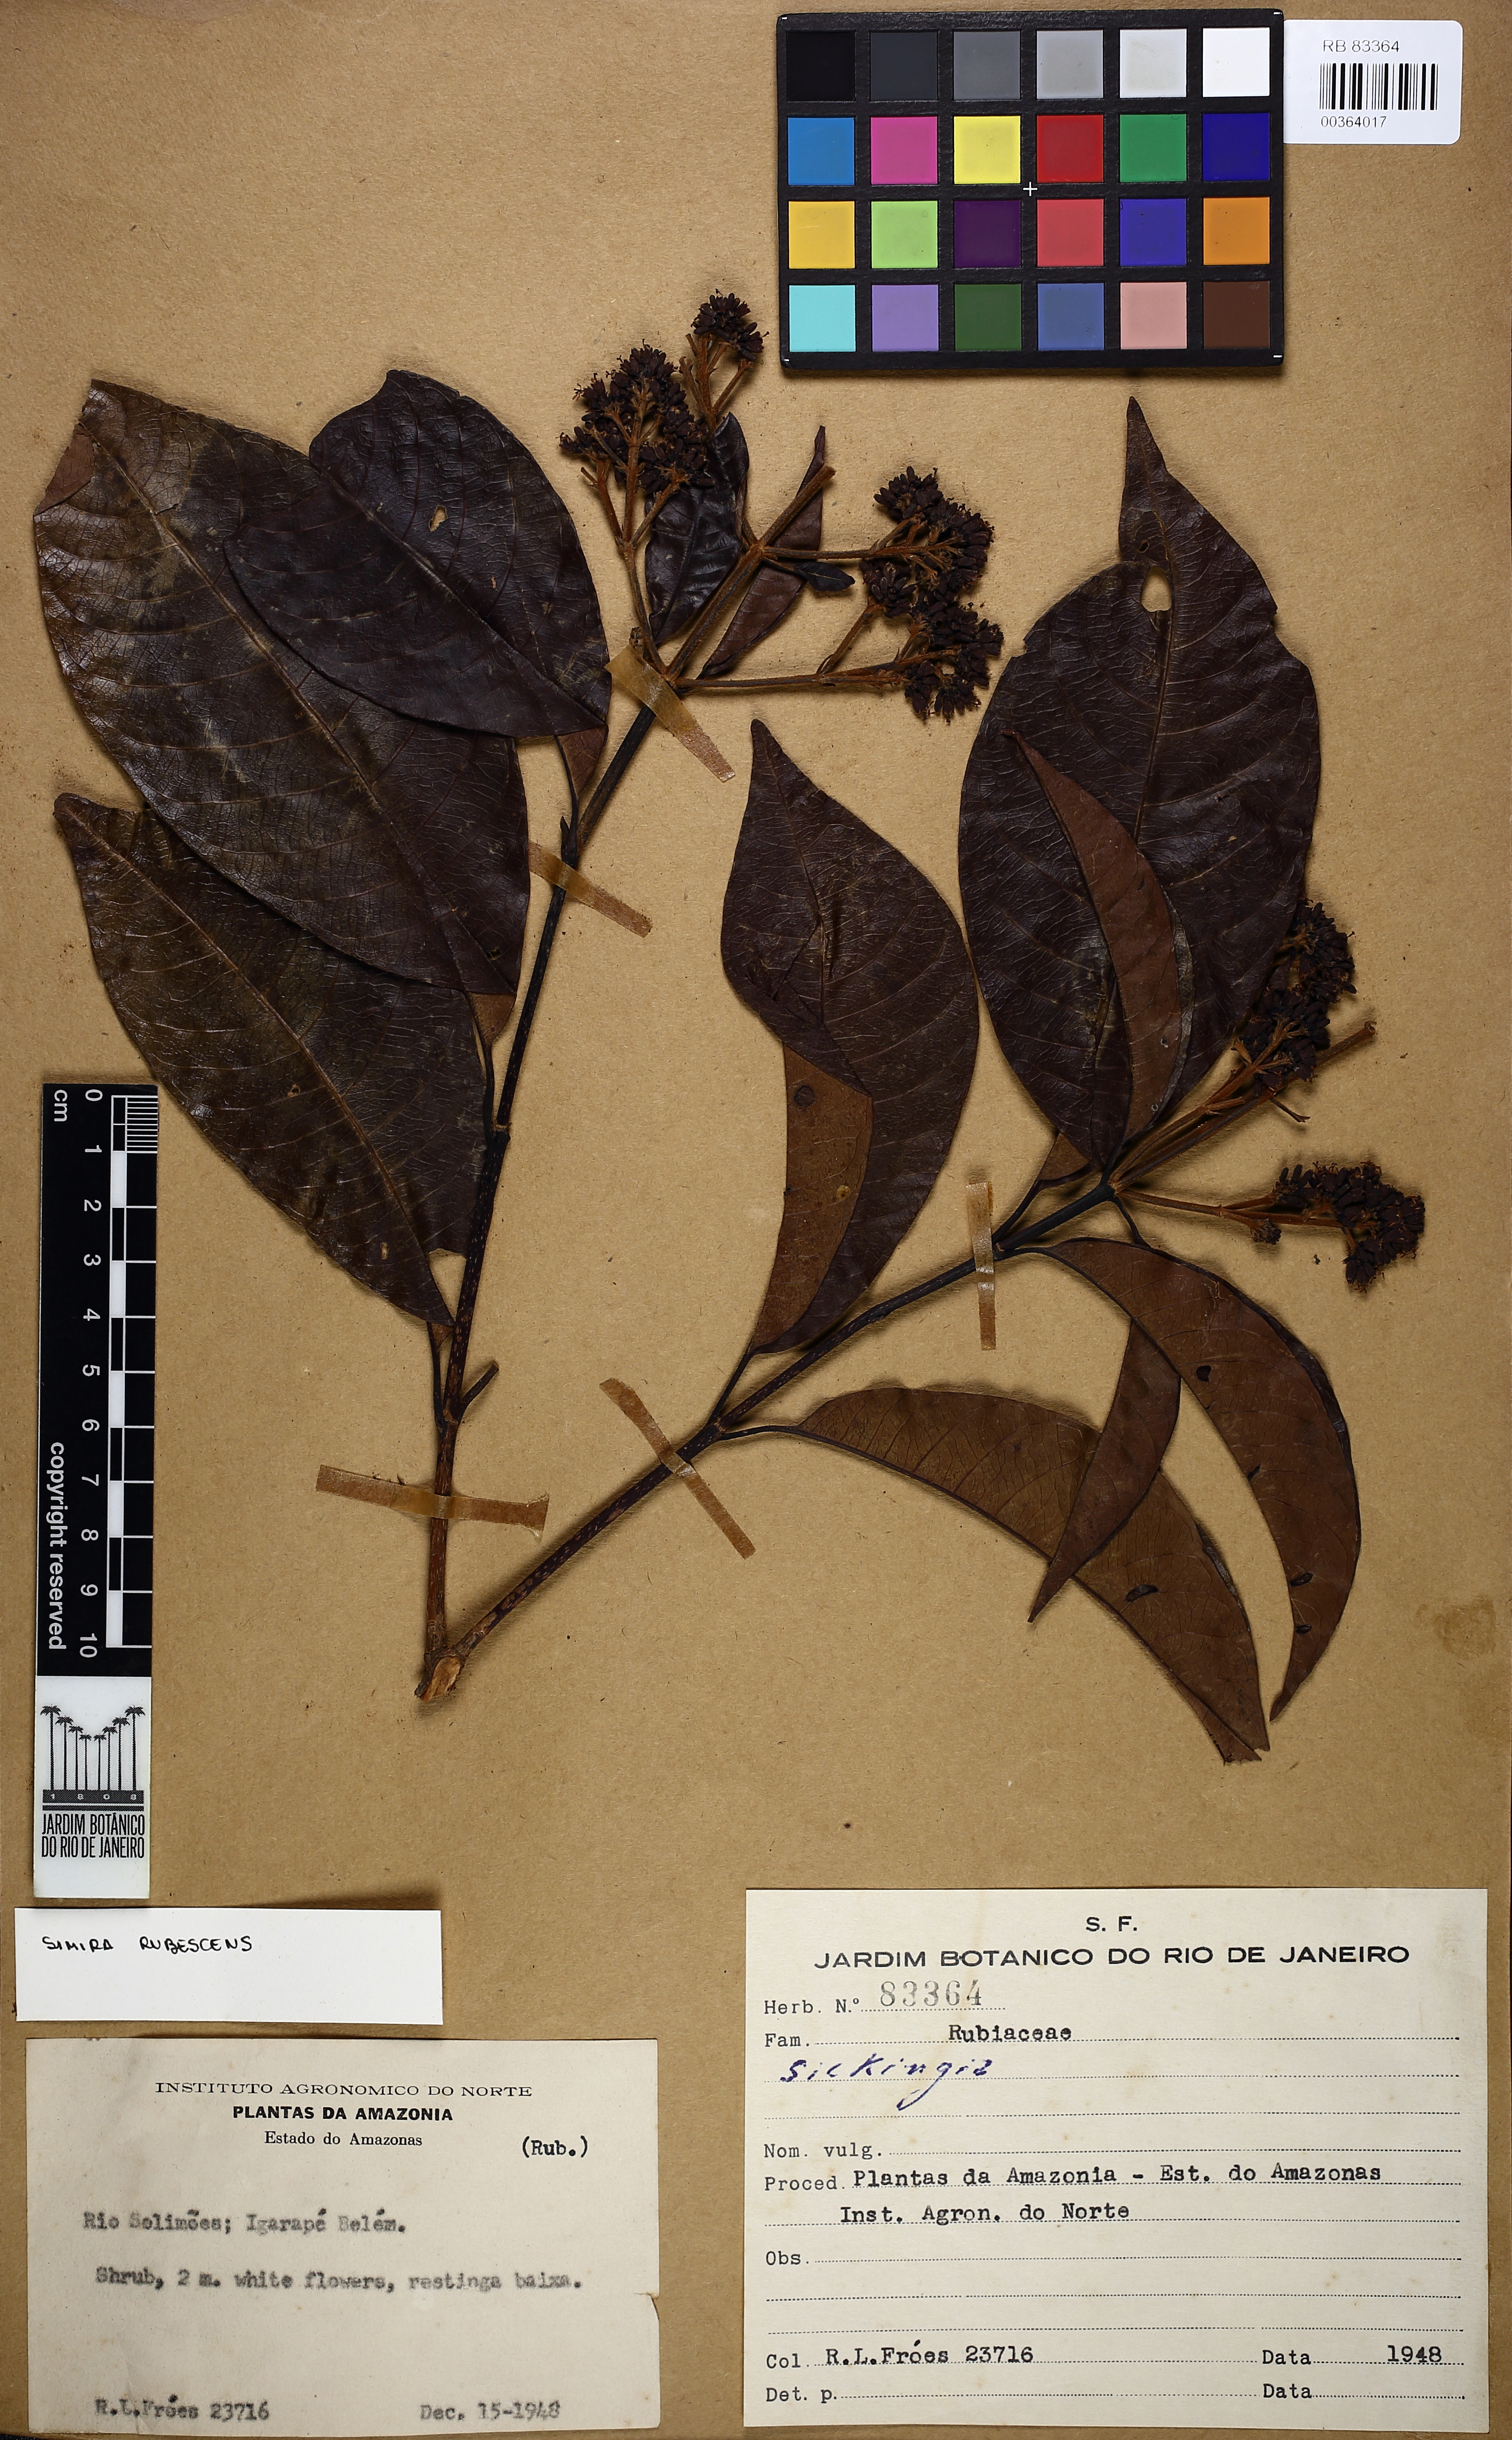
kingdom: Plantae
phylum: Tracheophyta
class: Magnoliopsida
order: Gentianales
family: Rubiaceae
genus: Simira
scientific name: Simira rubescens
